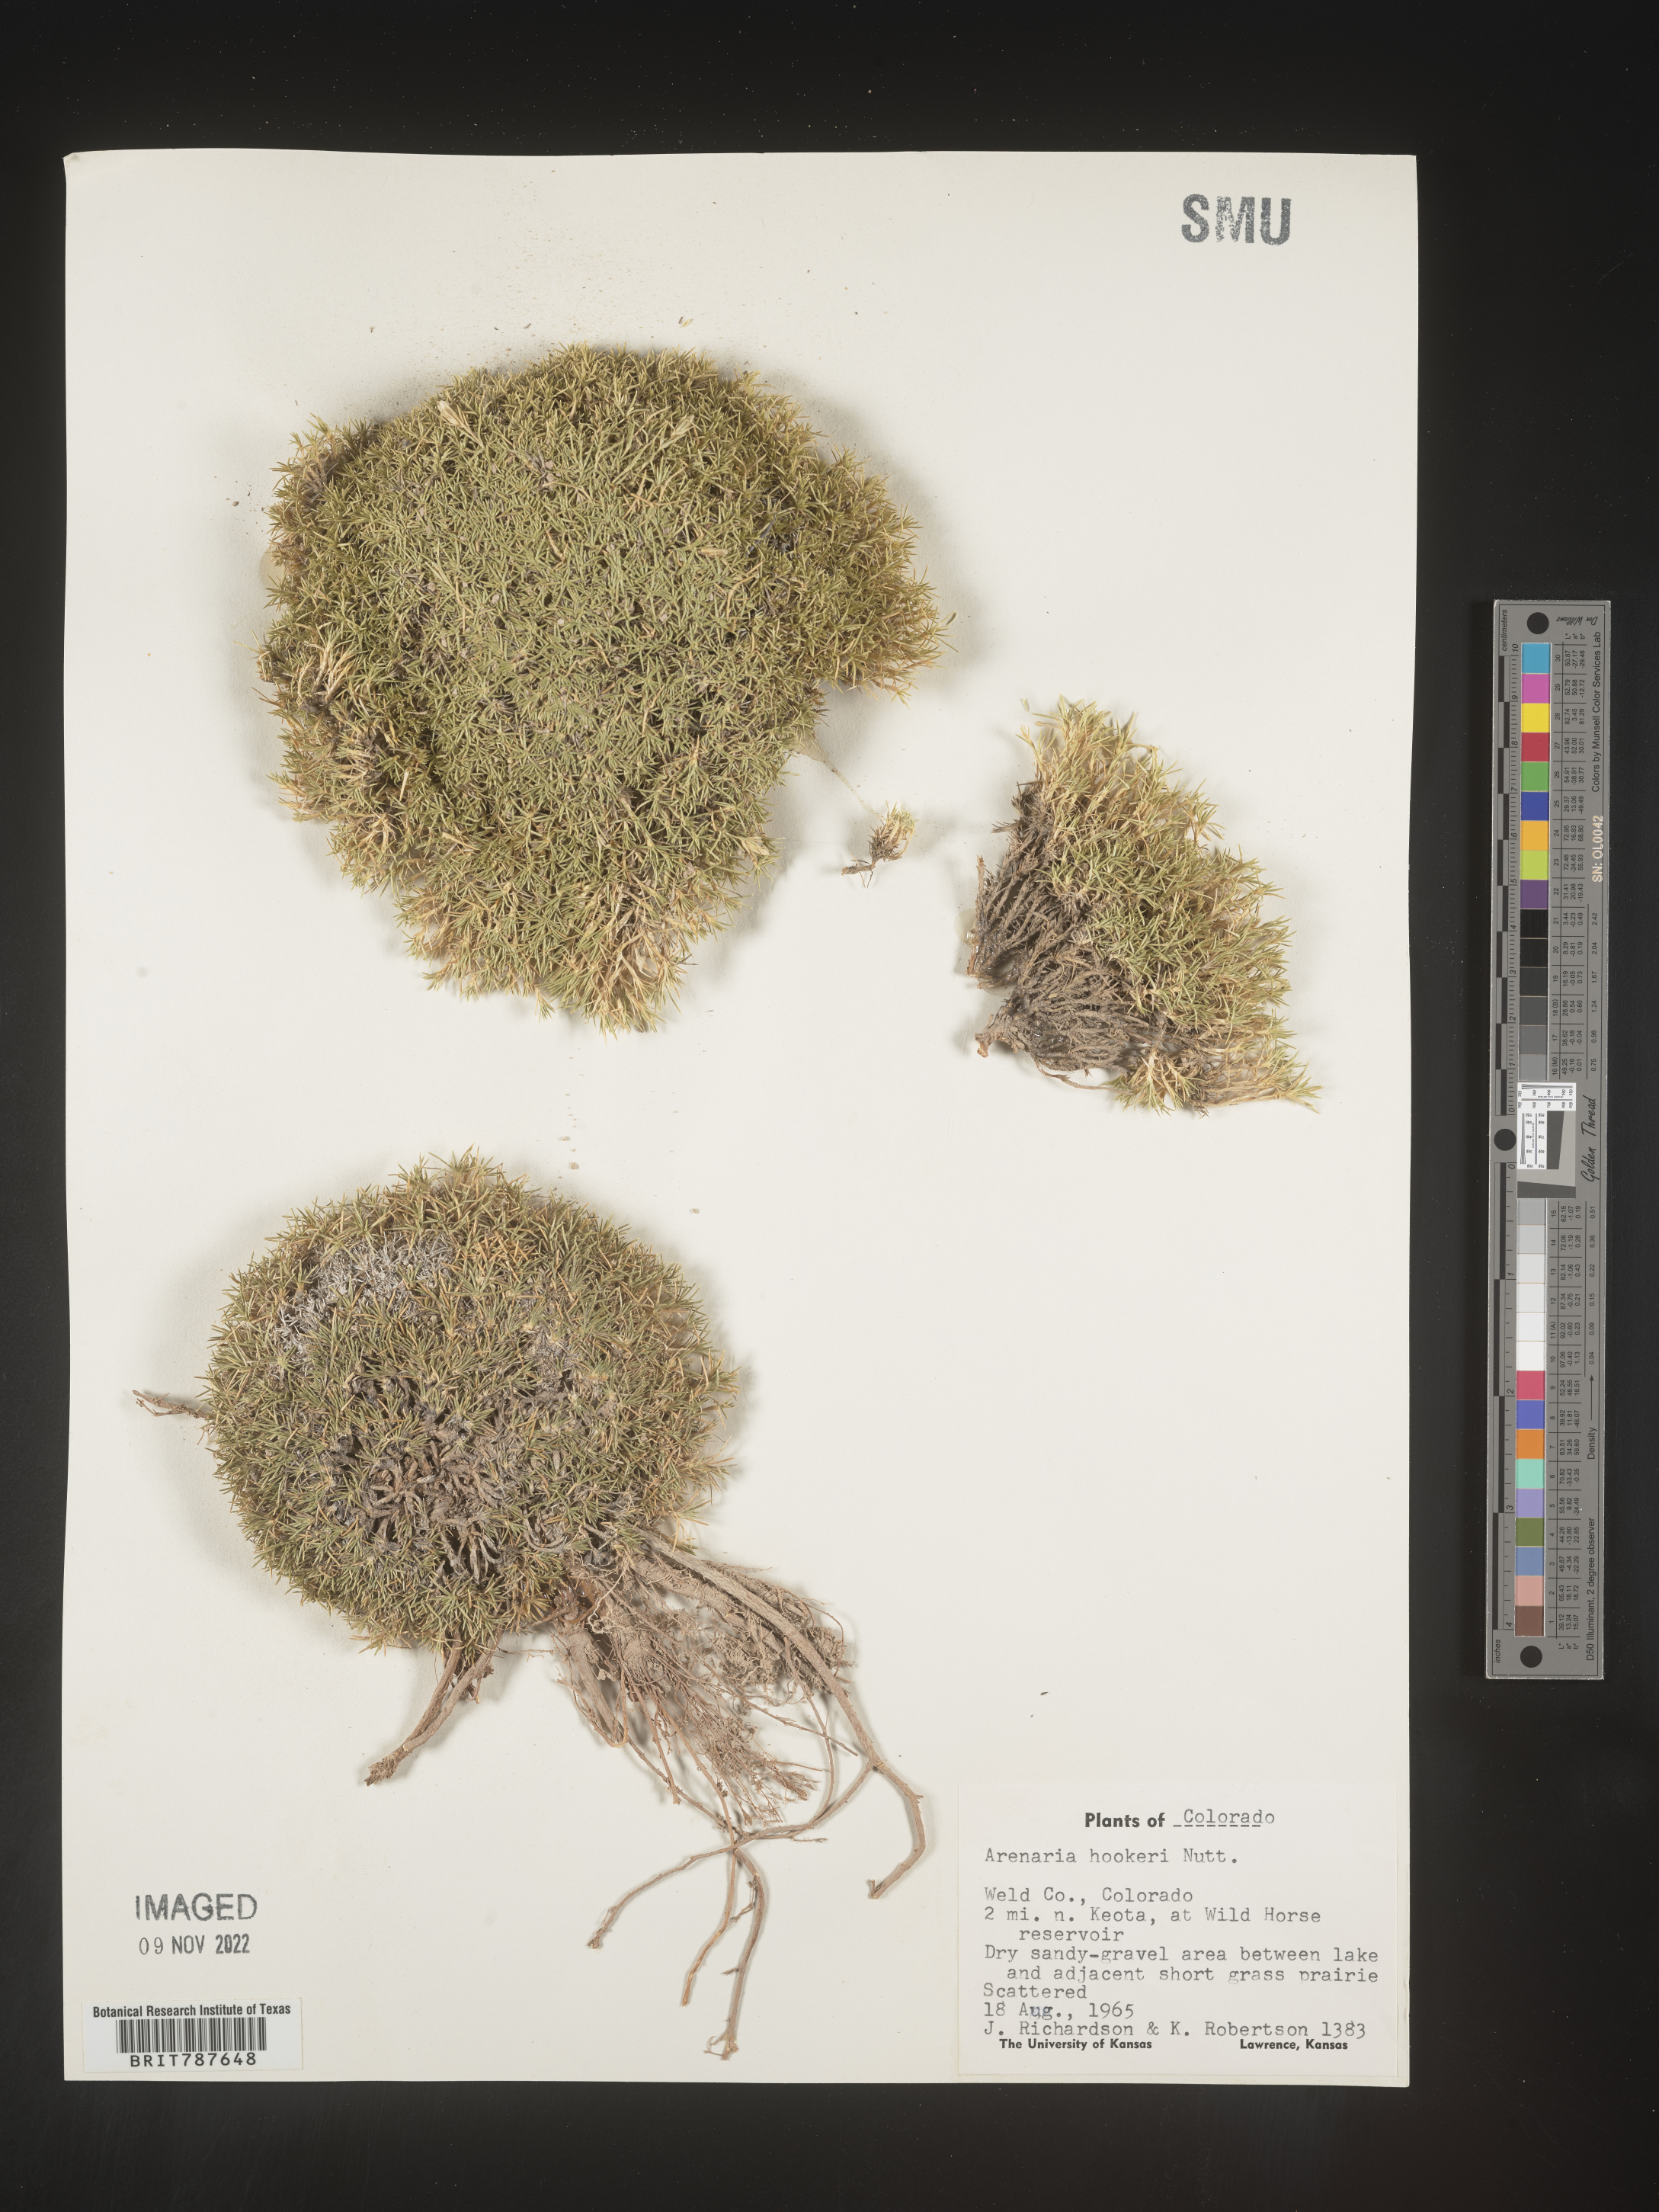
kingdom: Plantae
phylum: Tracheophyta
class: Magnoliopsida
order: Caryophyllales
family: Caryophyllaceae
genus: Arenaria
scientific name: Arenaria
